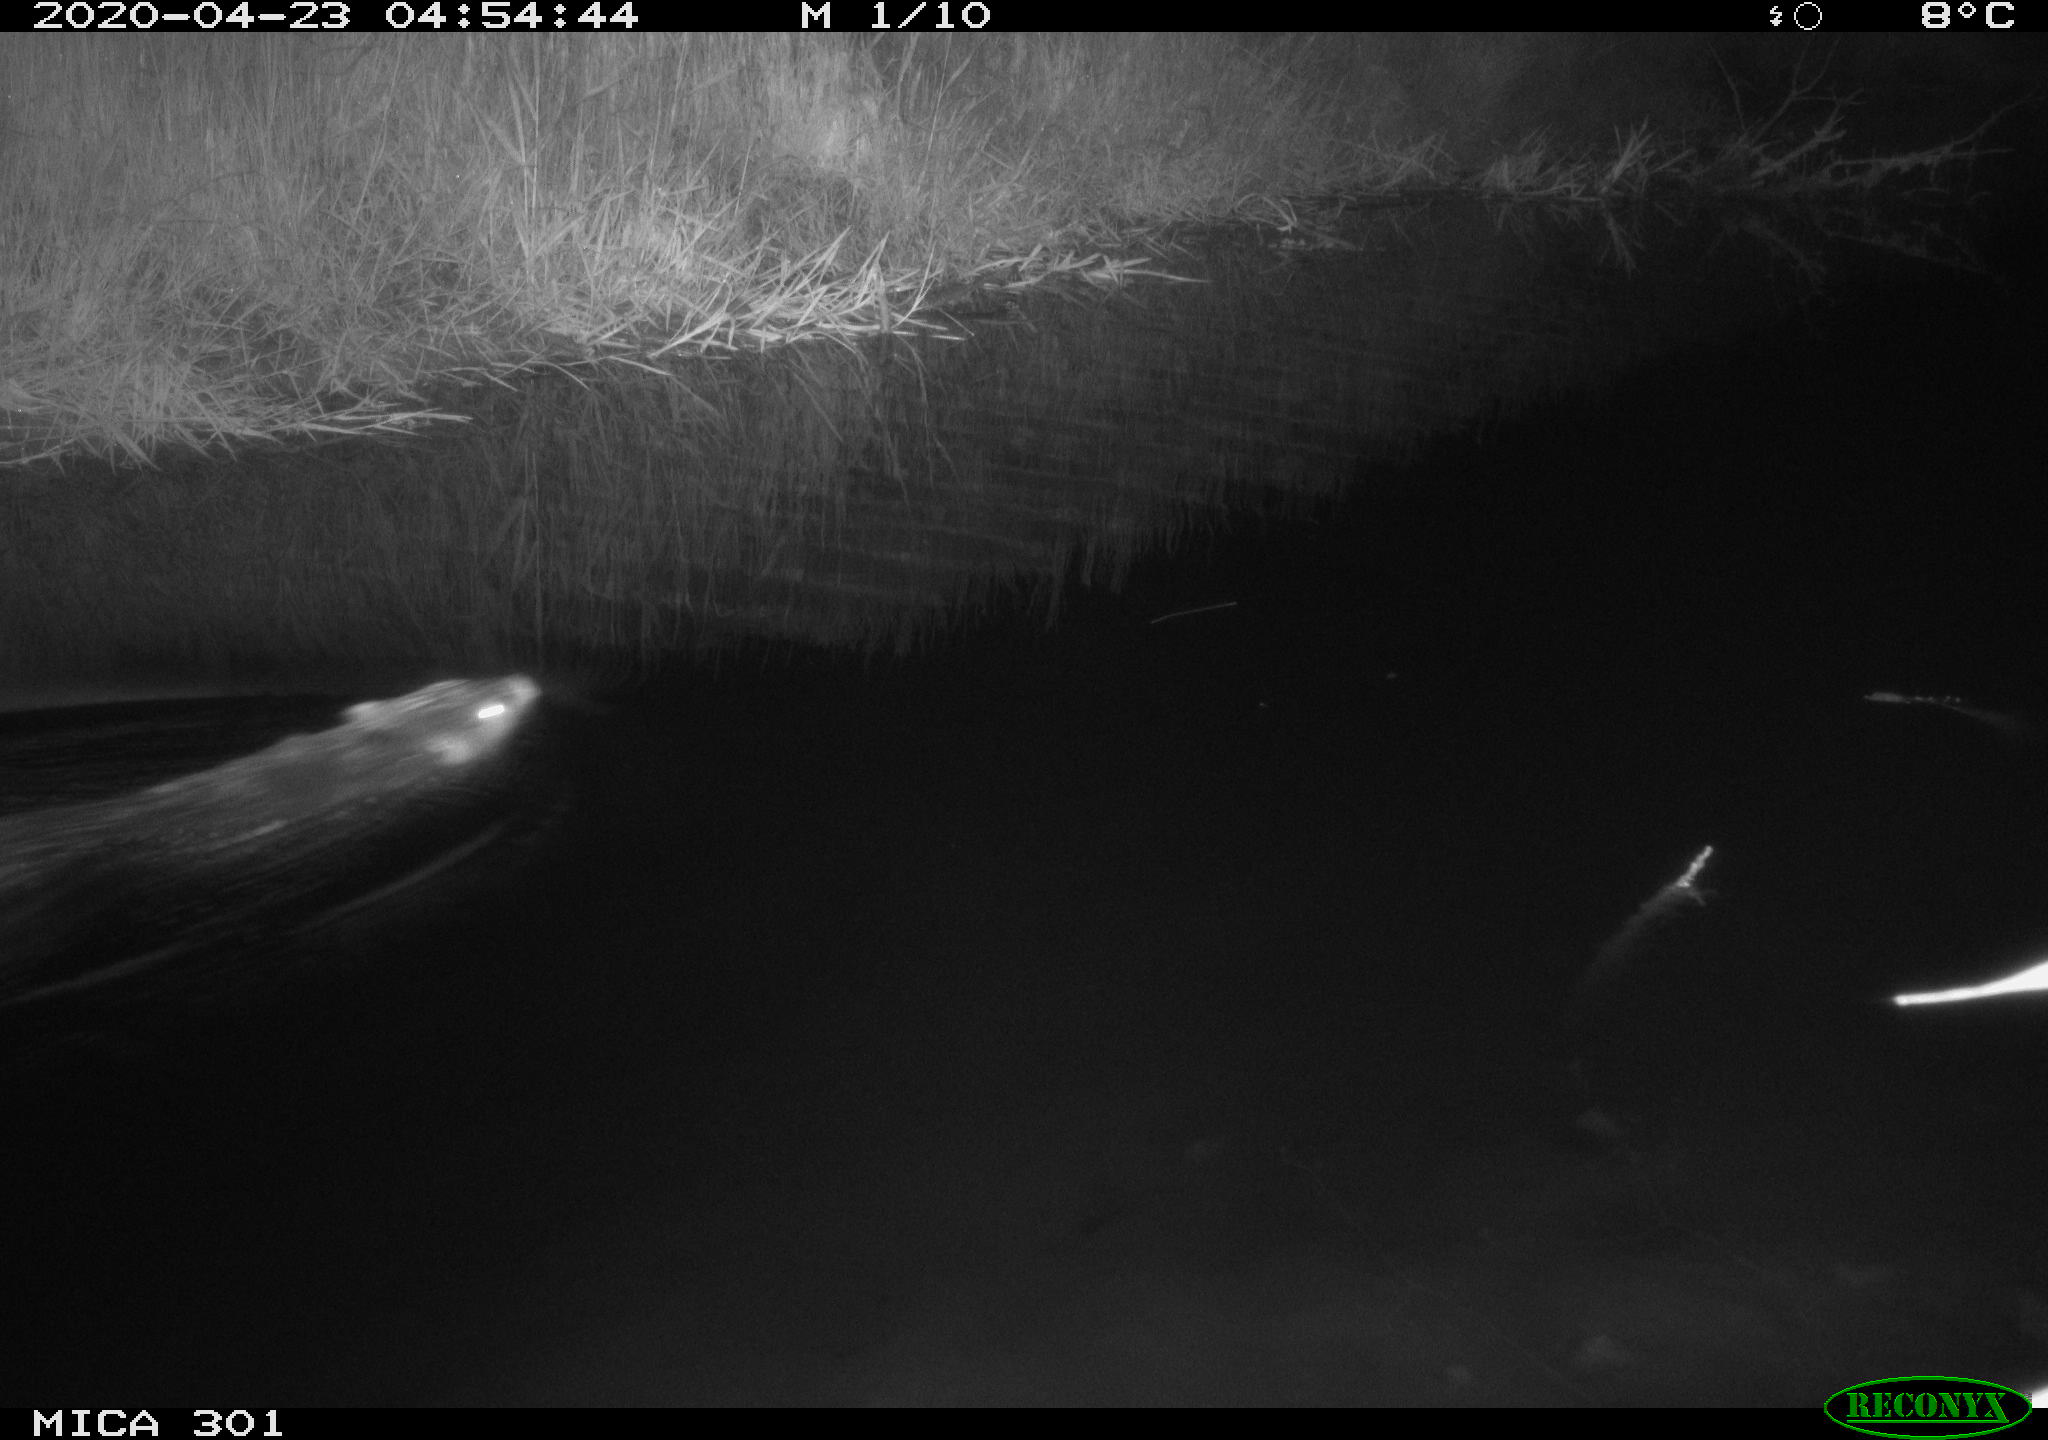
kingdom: Animalia
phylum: Chordata
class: Mammalia
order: Rodentia
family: Castoridae
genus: Castor
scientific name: Castor fiber
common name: Eurasian beaver
